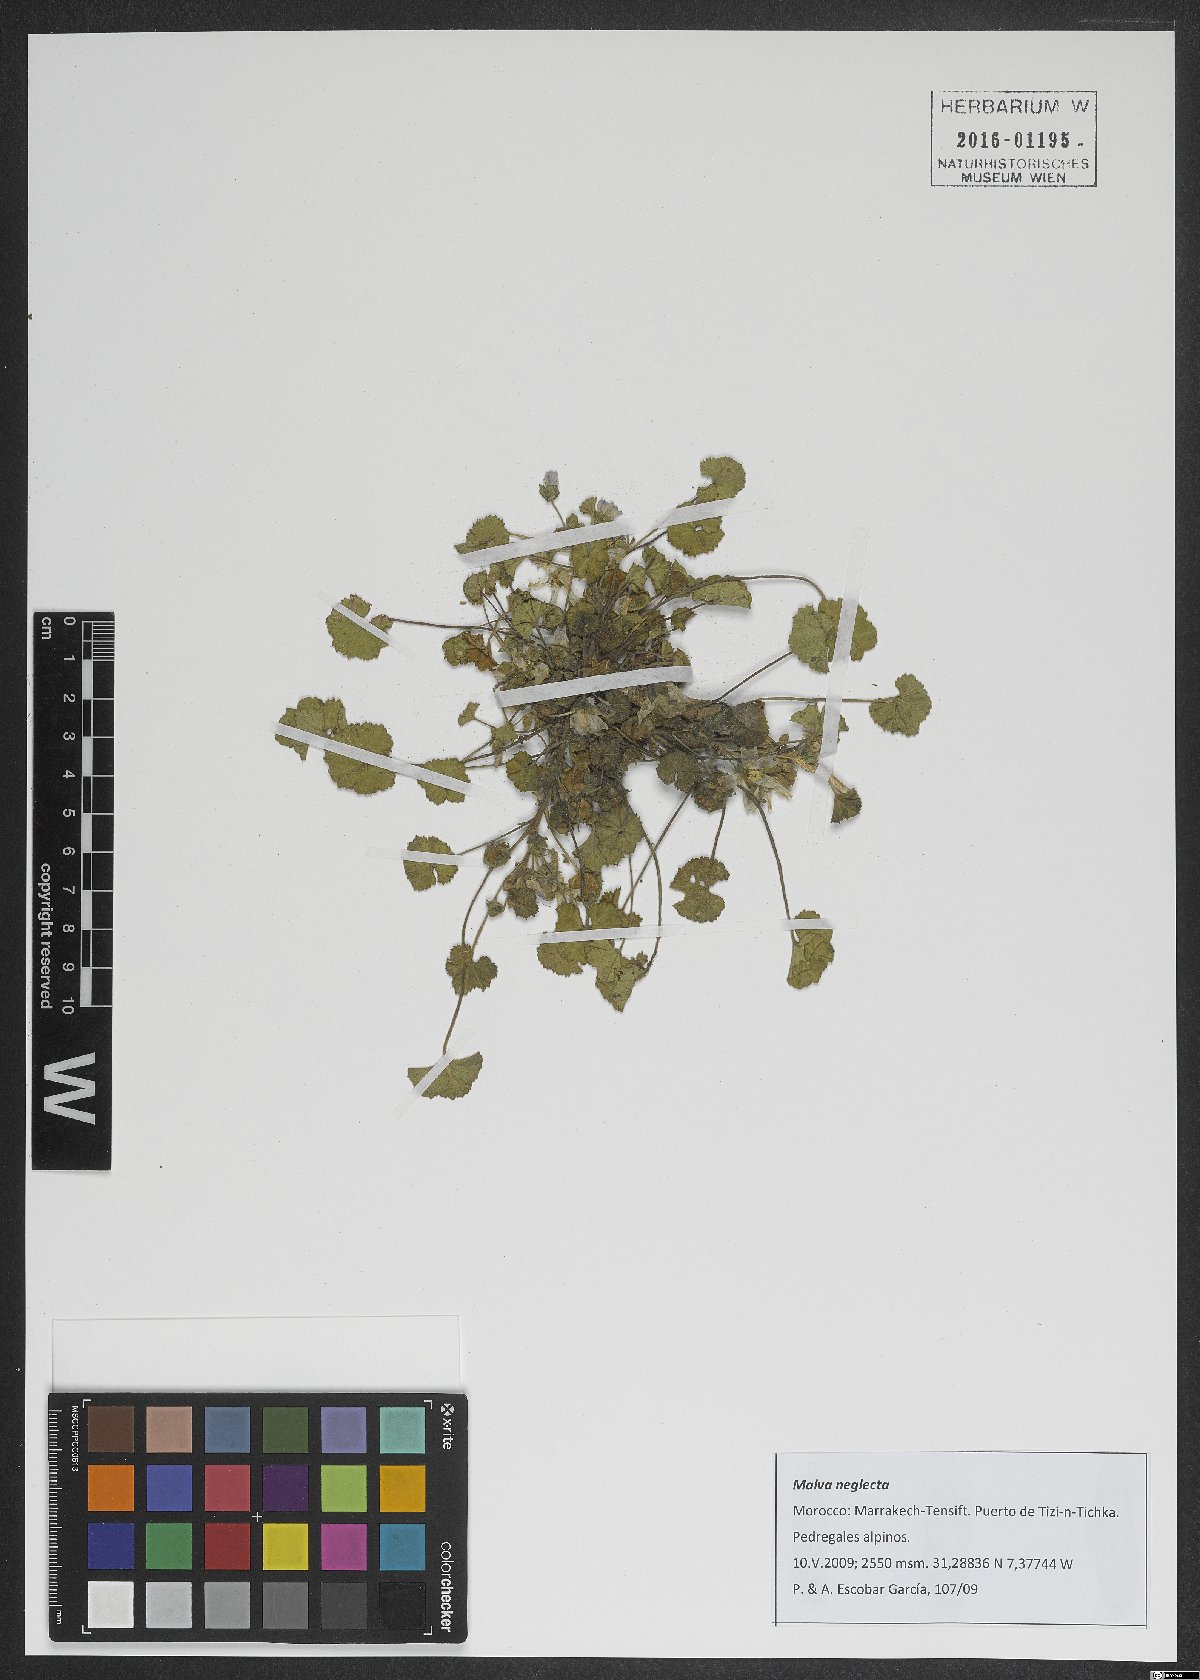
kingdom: Plantae
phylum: Tracheophyta
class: Magnoliopsida
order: Malvales
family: Malvaceae
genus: Malva
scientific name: Malva neglecta
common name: Common mallow
